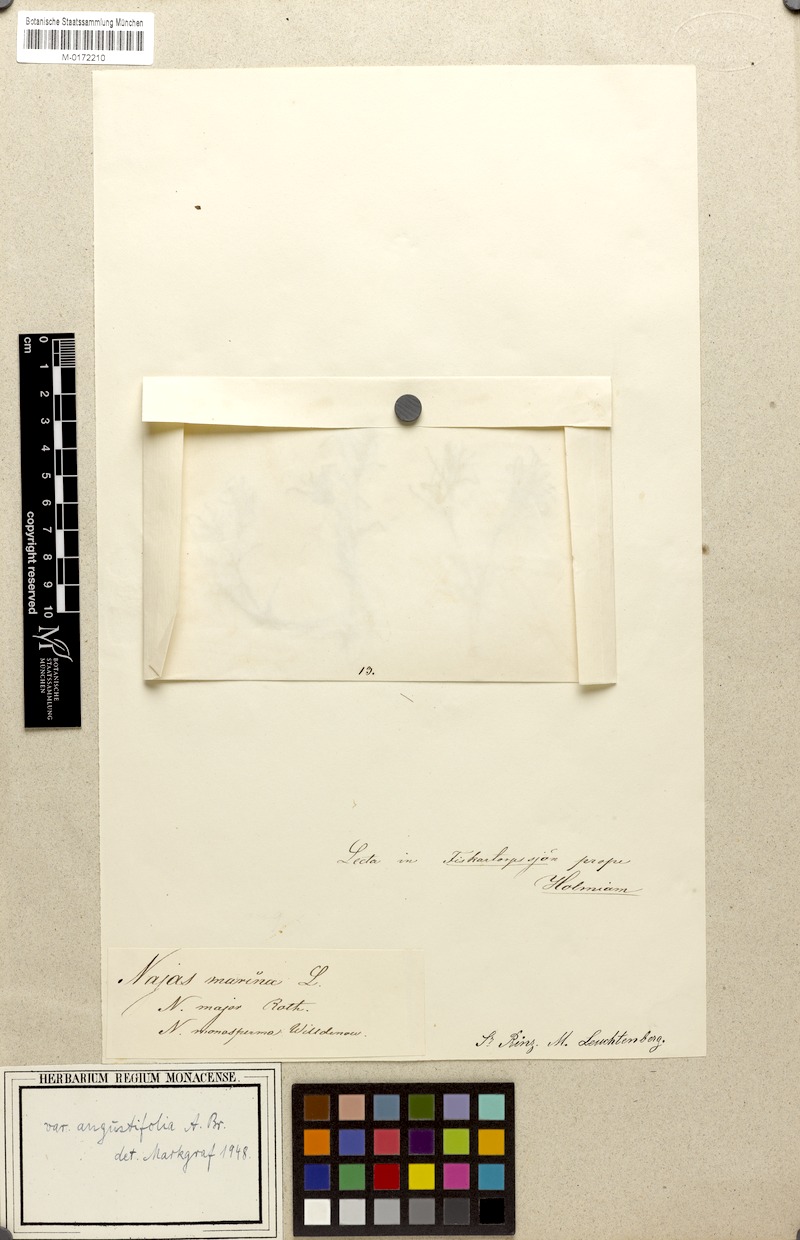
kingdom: Plantae
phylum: Tracheophyta
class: Liliopsida
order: Alismatales
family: Hydrocharitaceae
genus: Najas
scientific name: Najas major
